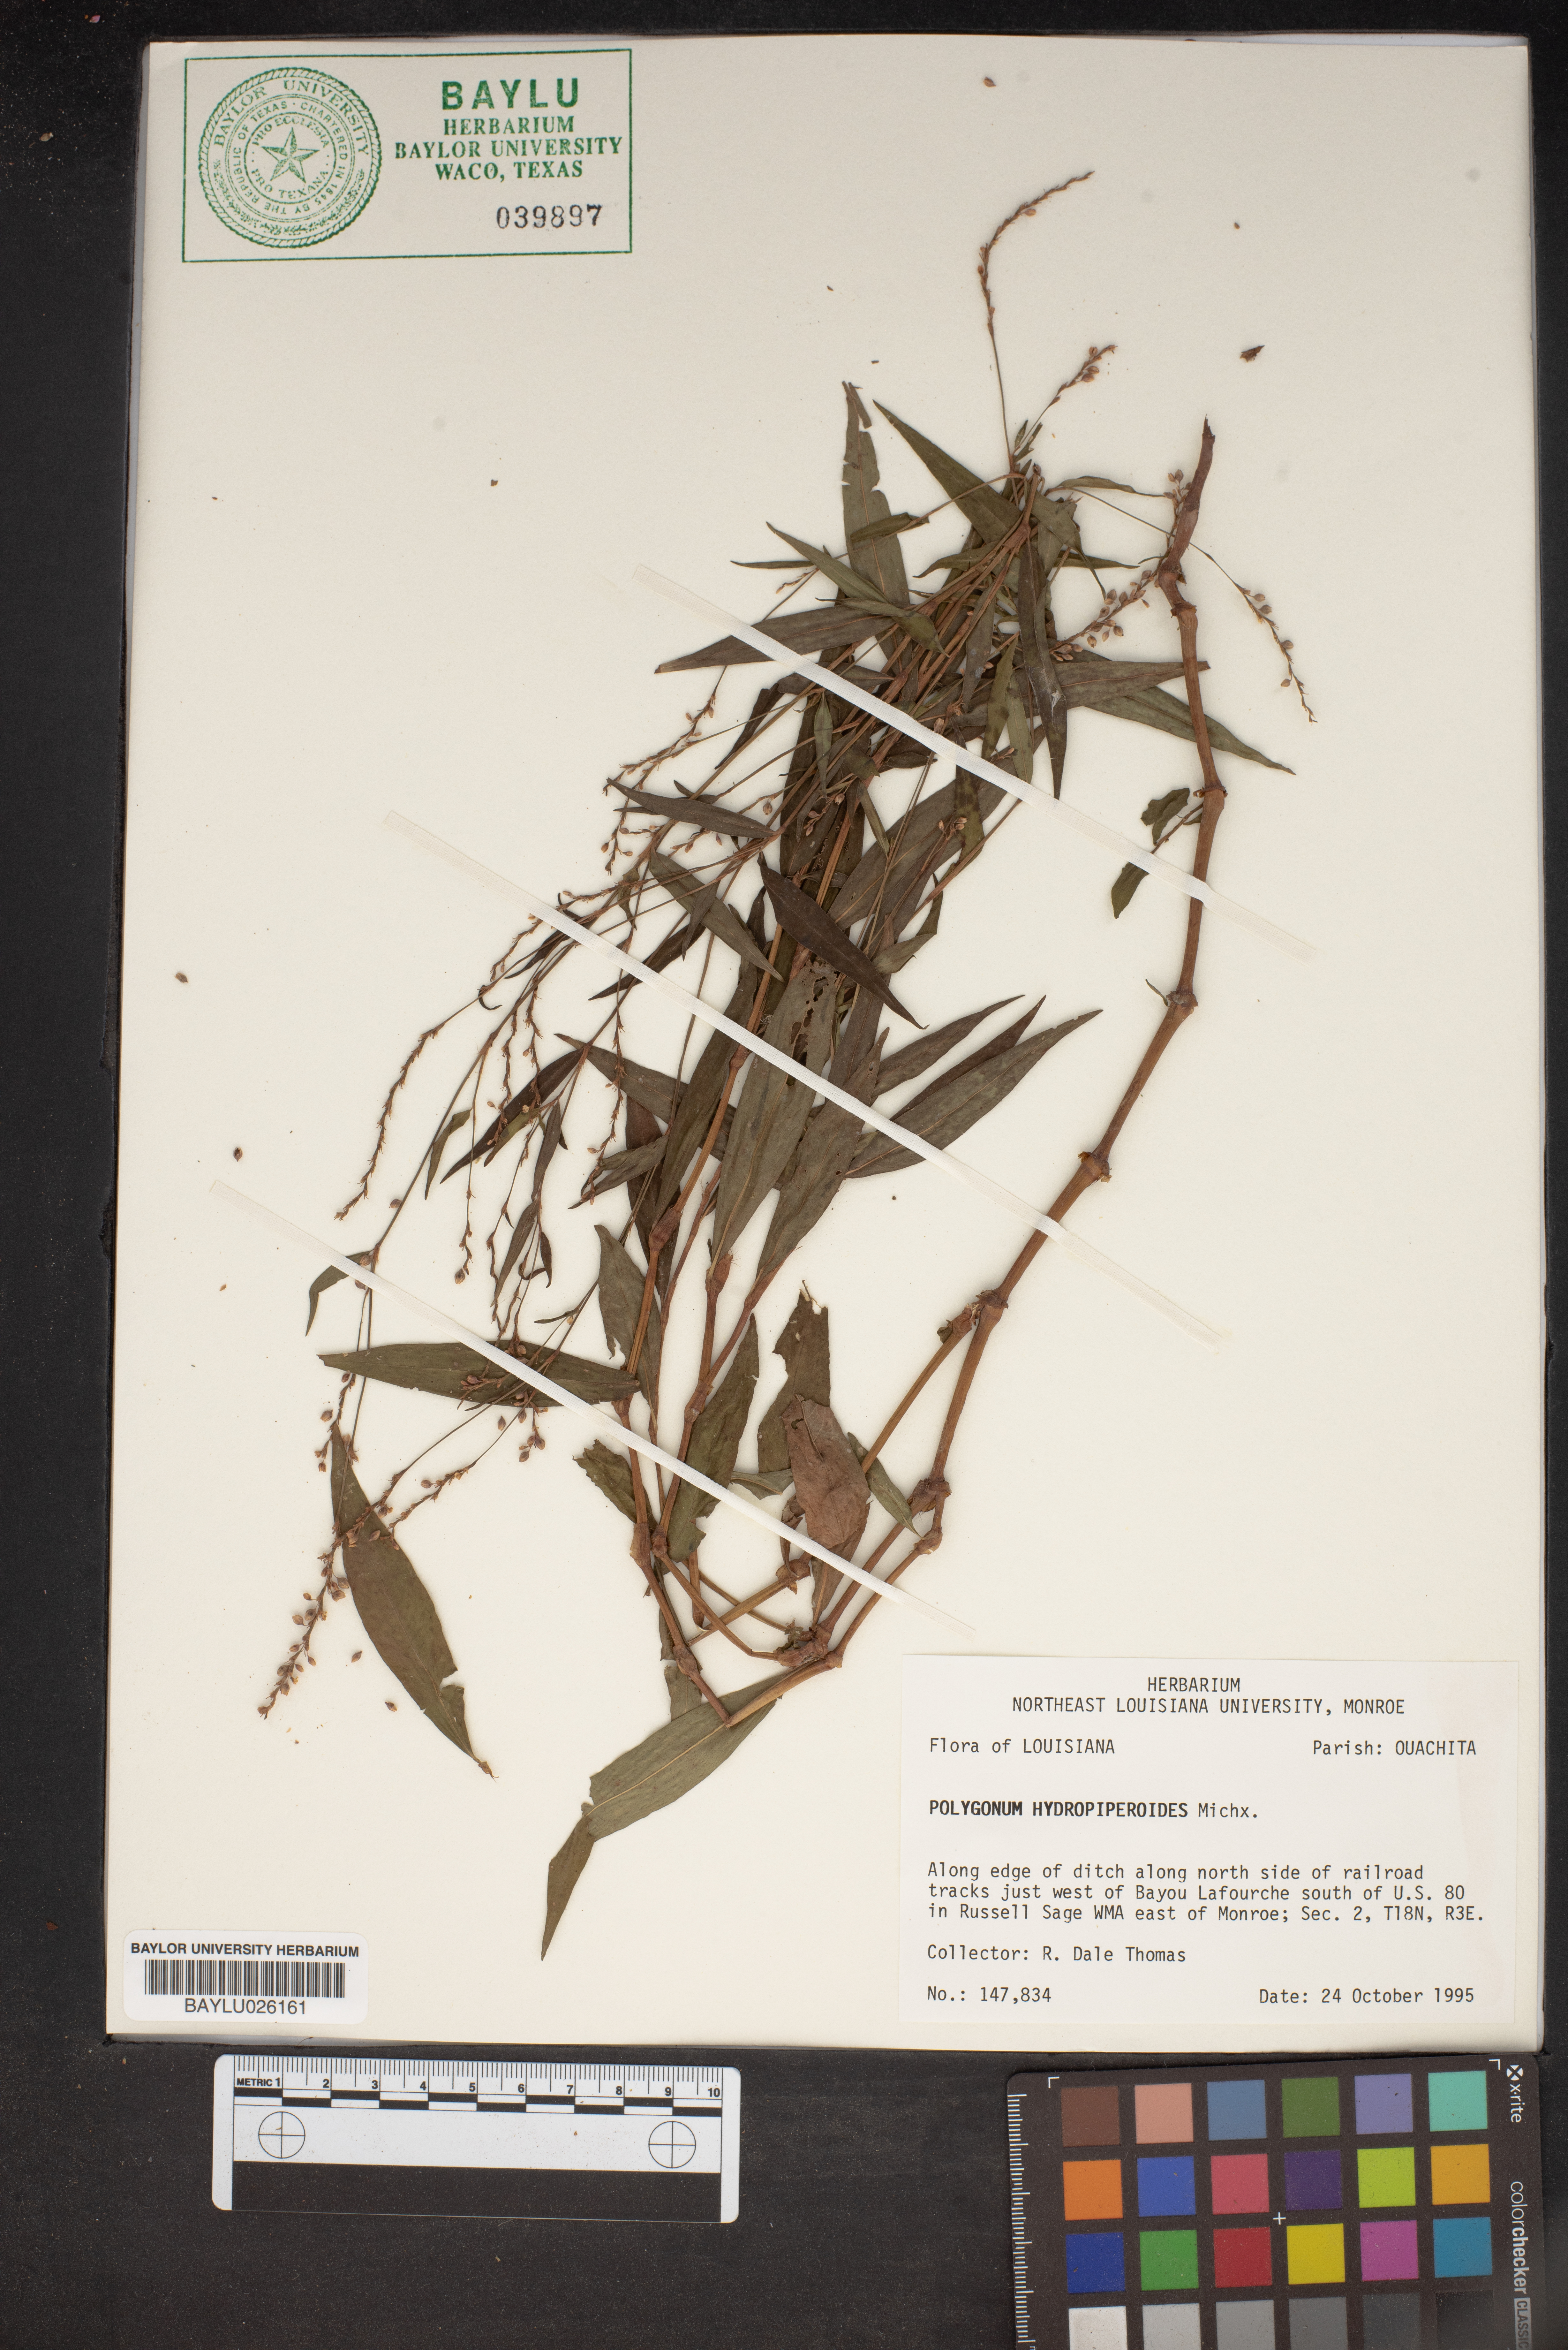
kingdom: Plantae
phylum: Tracheophyta
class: Magnoliopsida
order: Caryophyllales
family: Polygonaceae
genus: Persicaria
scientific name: Persicaria hydropiperoides
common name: Swamp smartweed
